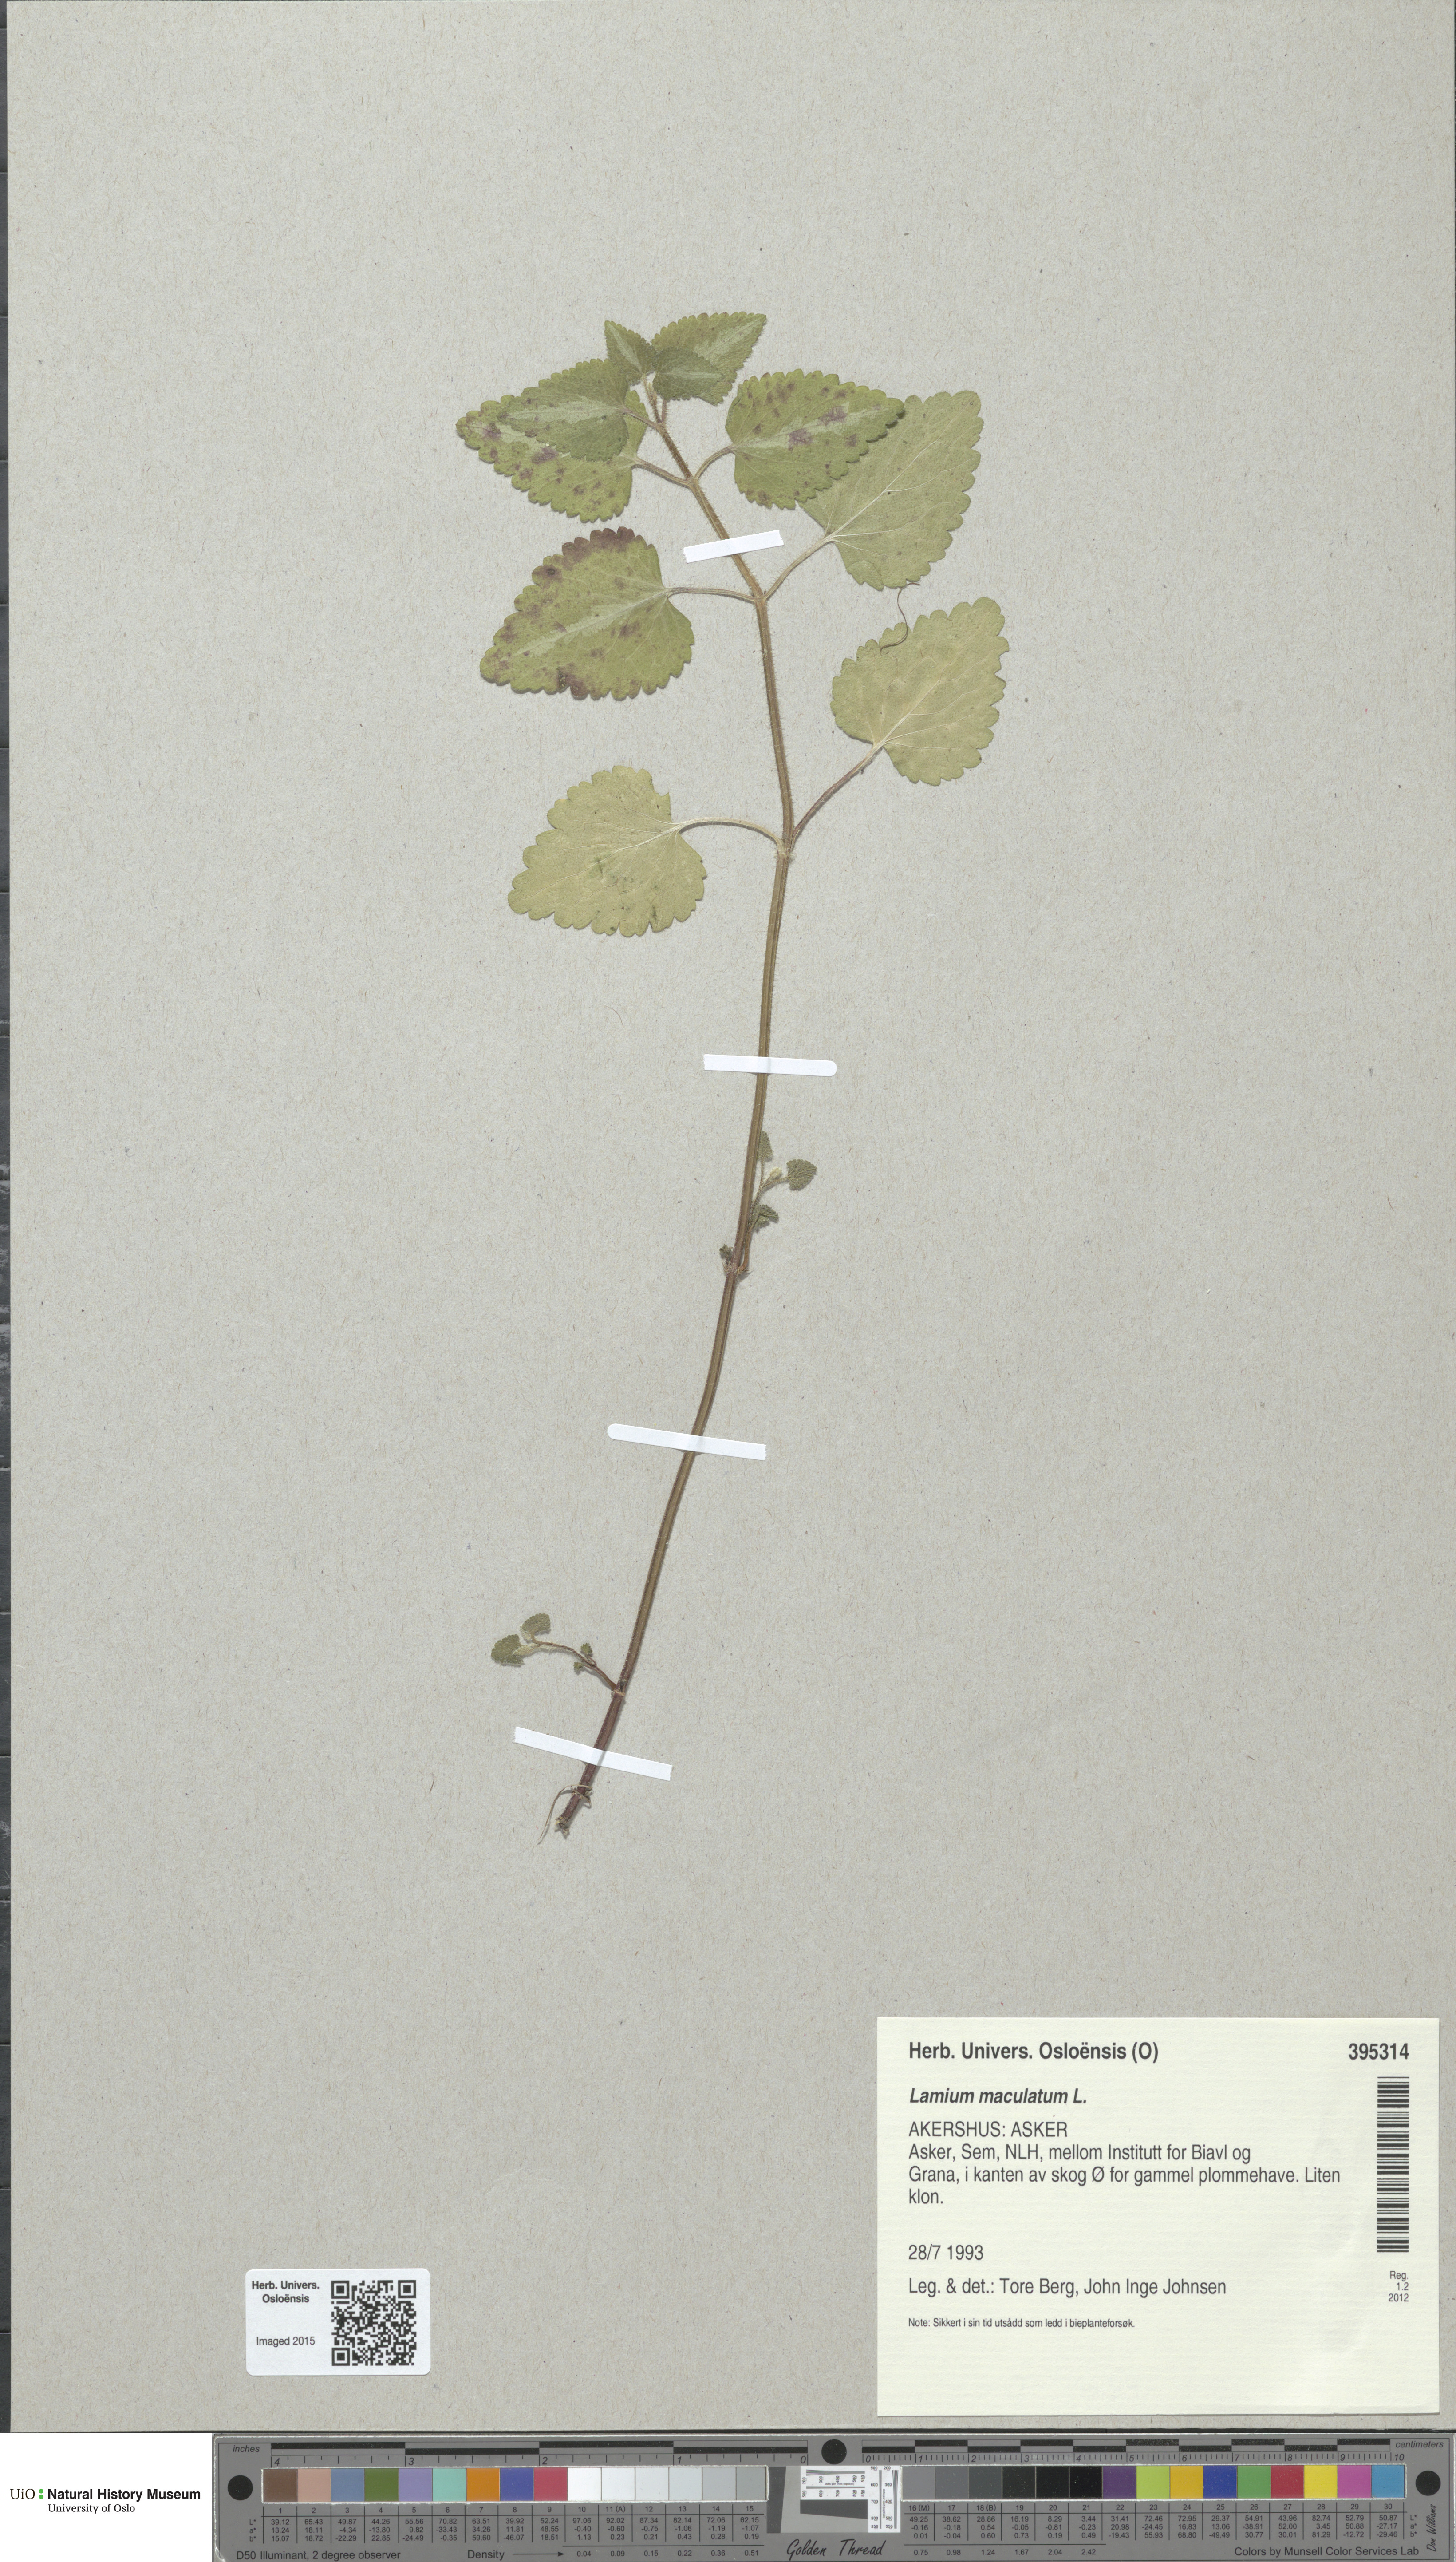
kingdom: Plantae
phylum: Tracheophyta
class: Magnoliopsida
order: Lamiales
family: Lamiaceae
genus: Lamium
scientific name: Lamium maculatum
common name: Spotted dead-nettle
